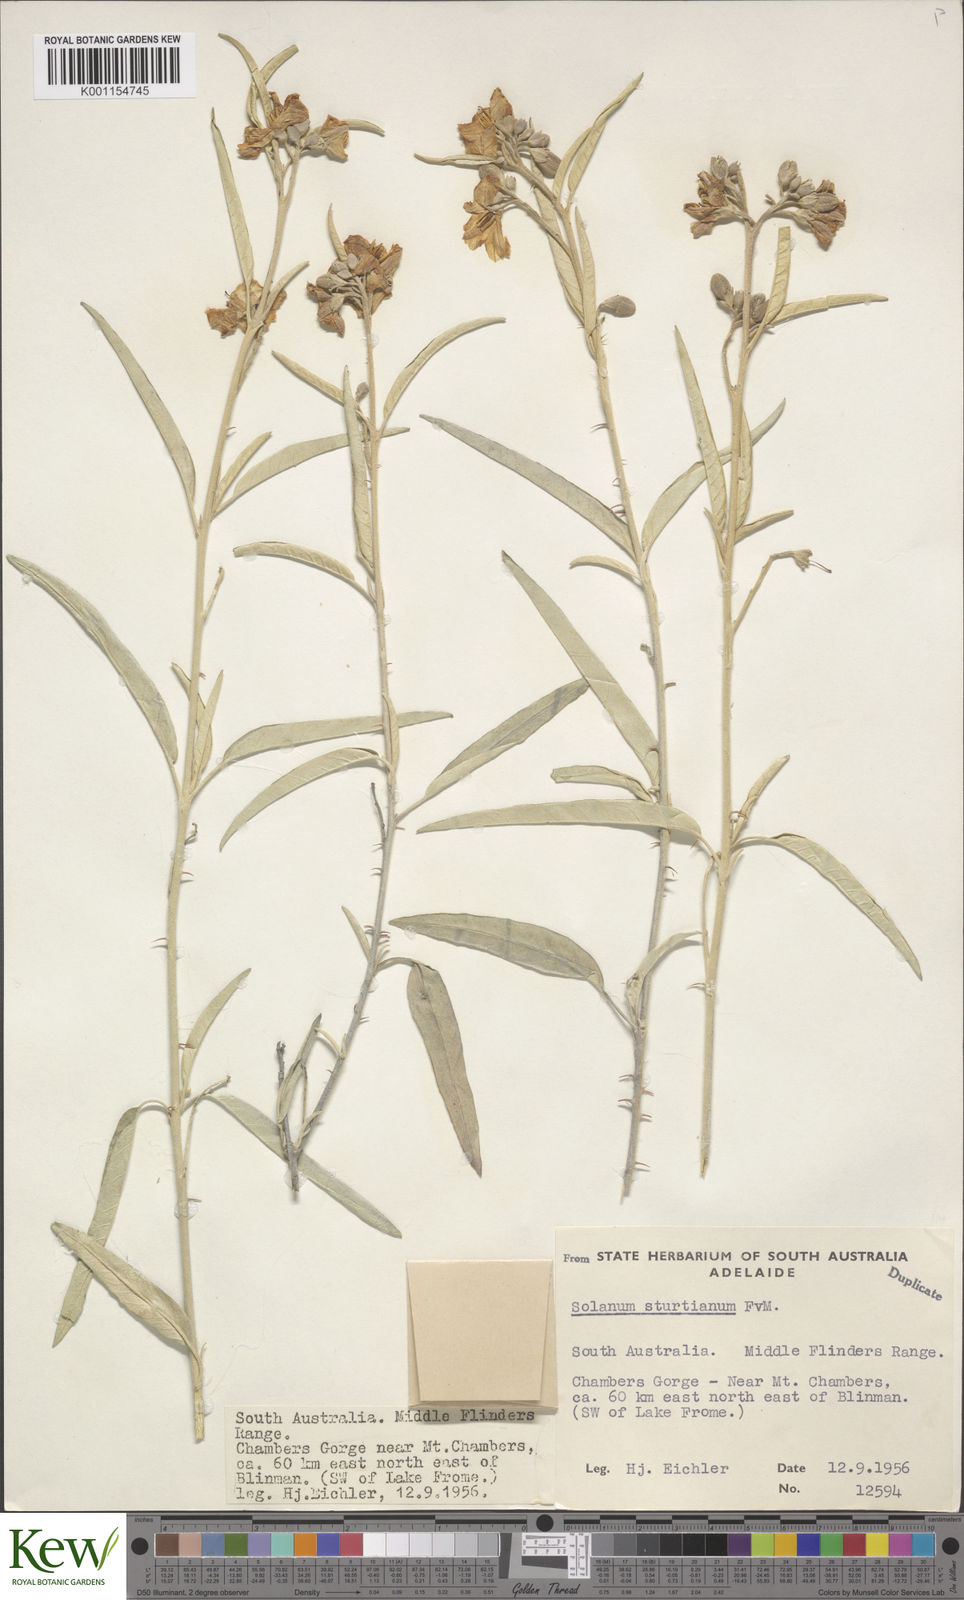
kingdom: Plantae
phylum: Tracheophyta
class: Magnoliopsida
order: Solanales
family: Solanaceae
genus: Solanum
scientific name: Solanum sturtianum
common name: Thargomindah nightshade
